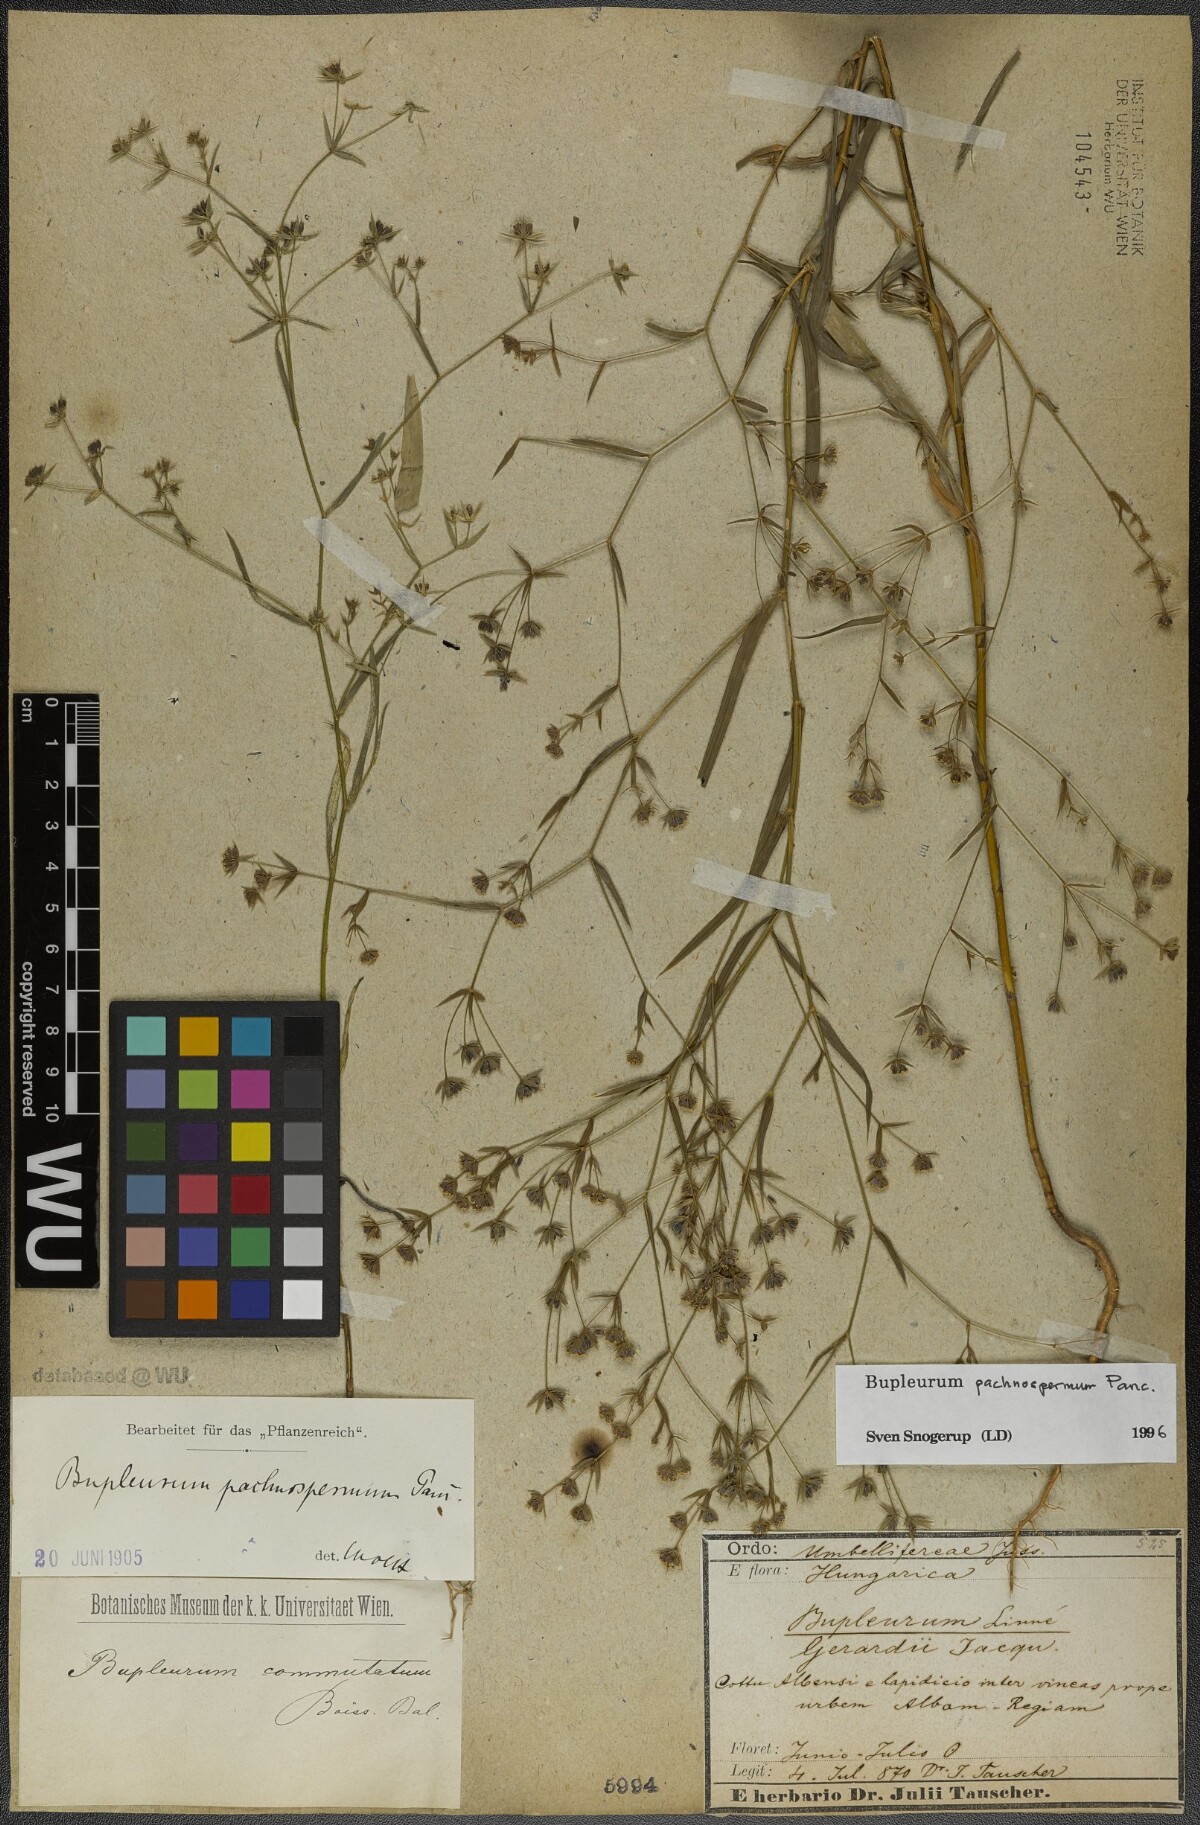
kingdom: Plantae
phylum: Tracheophyta
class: Magnoliopsida
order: Apiales
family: Apiaceae
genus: Bupleurum
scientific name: Bupleurum pachnospermum
